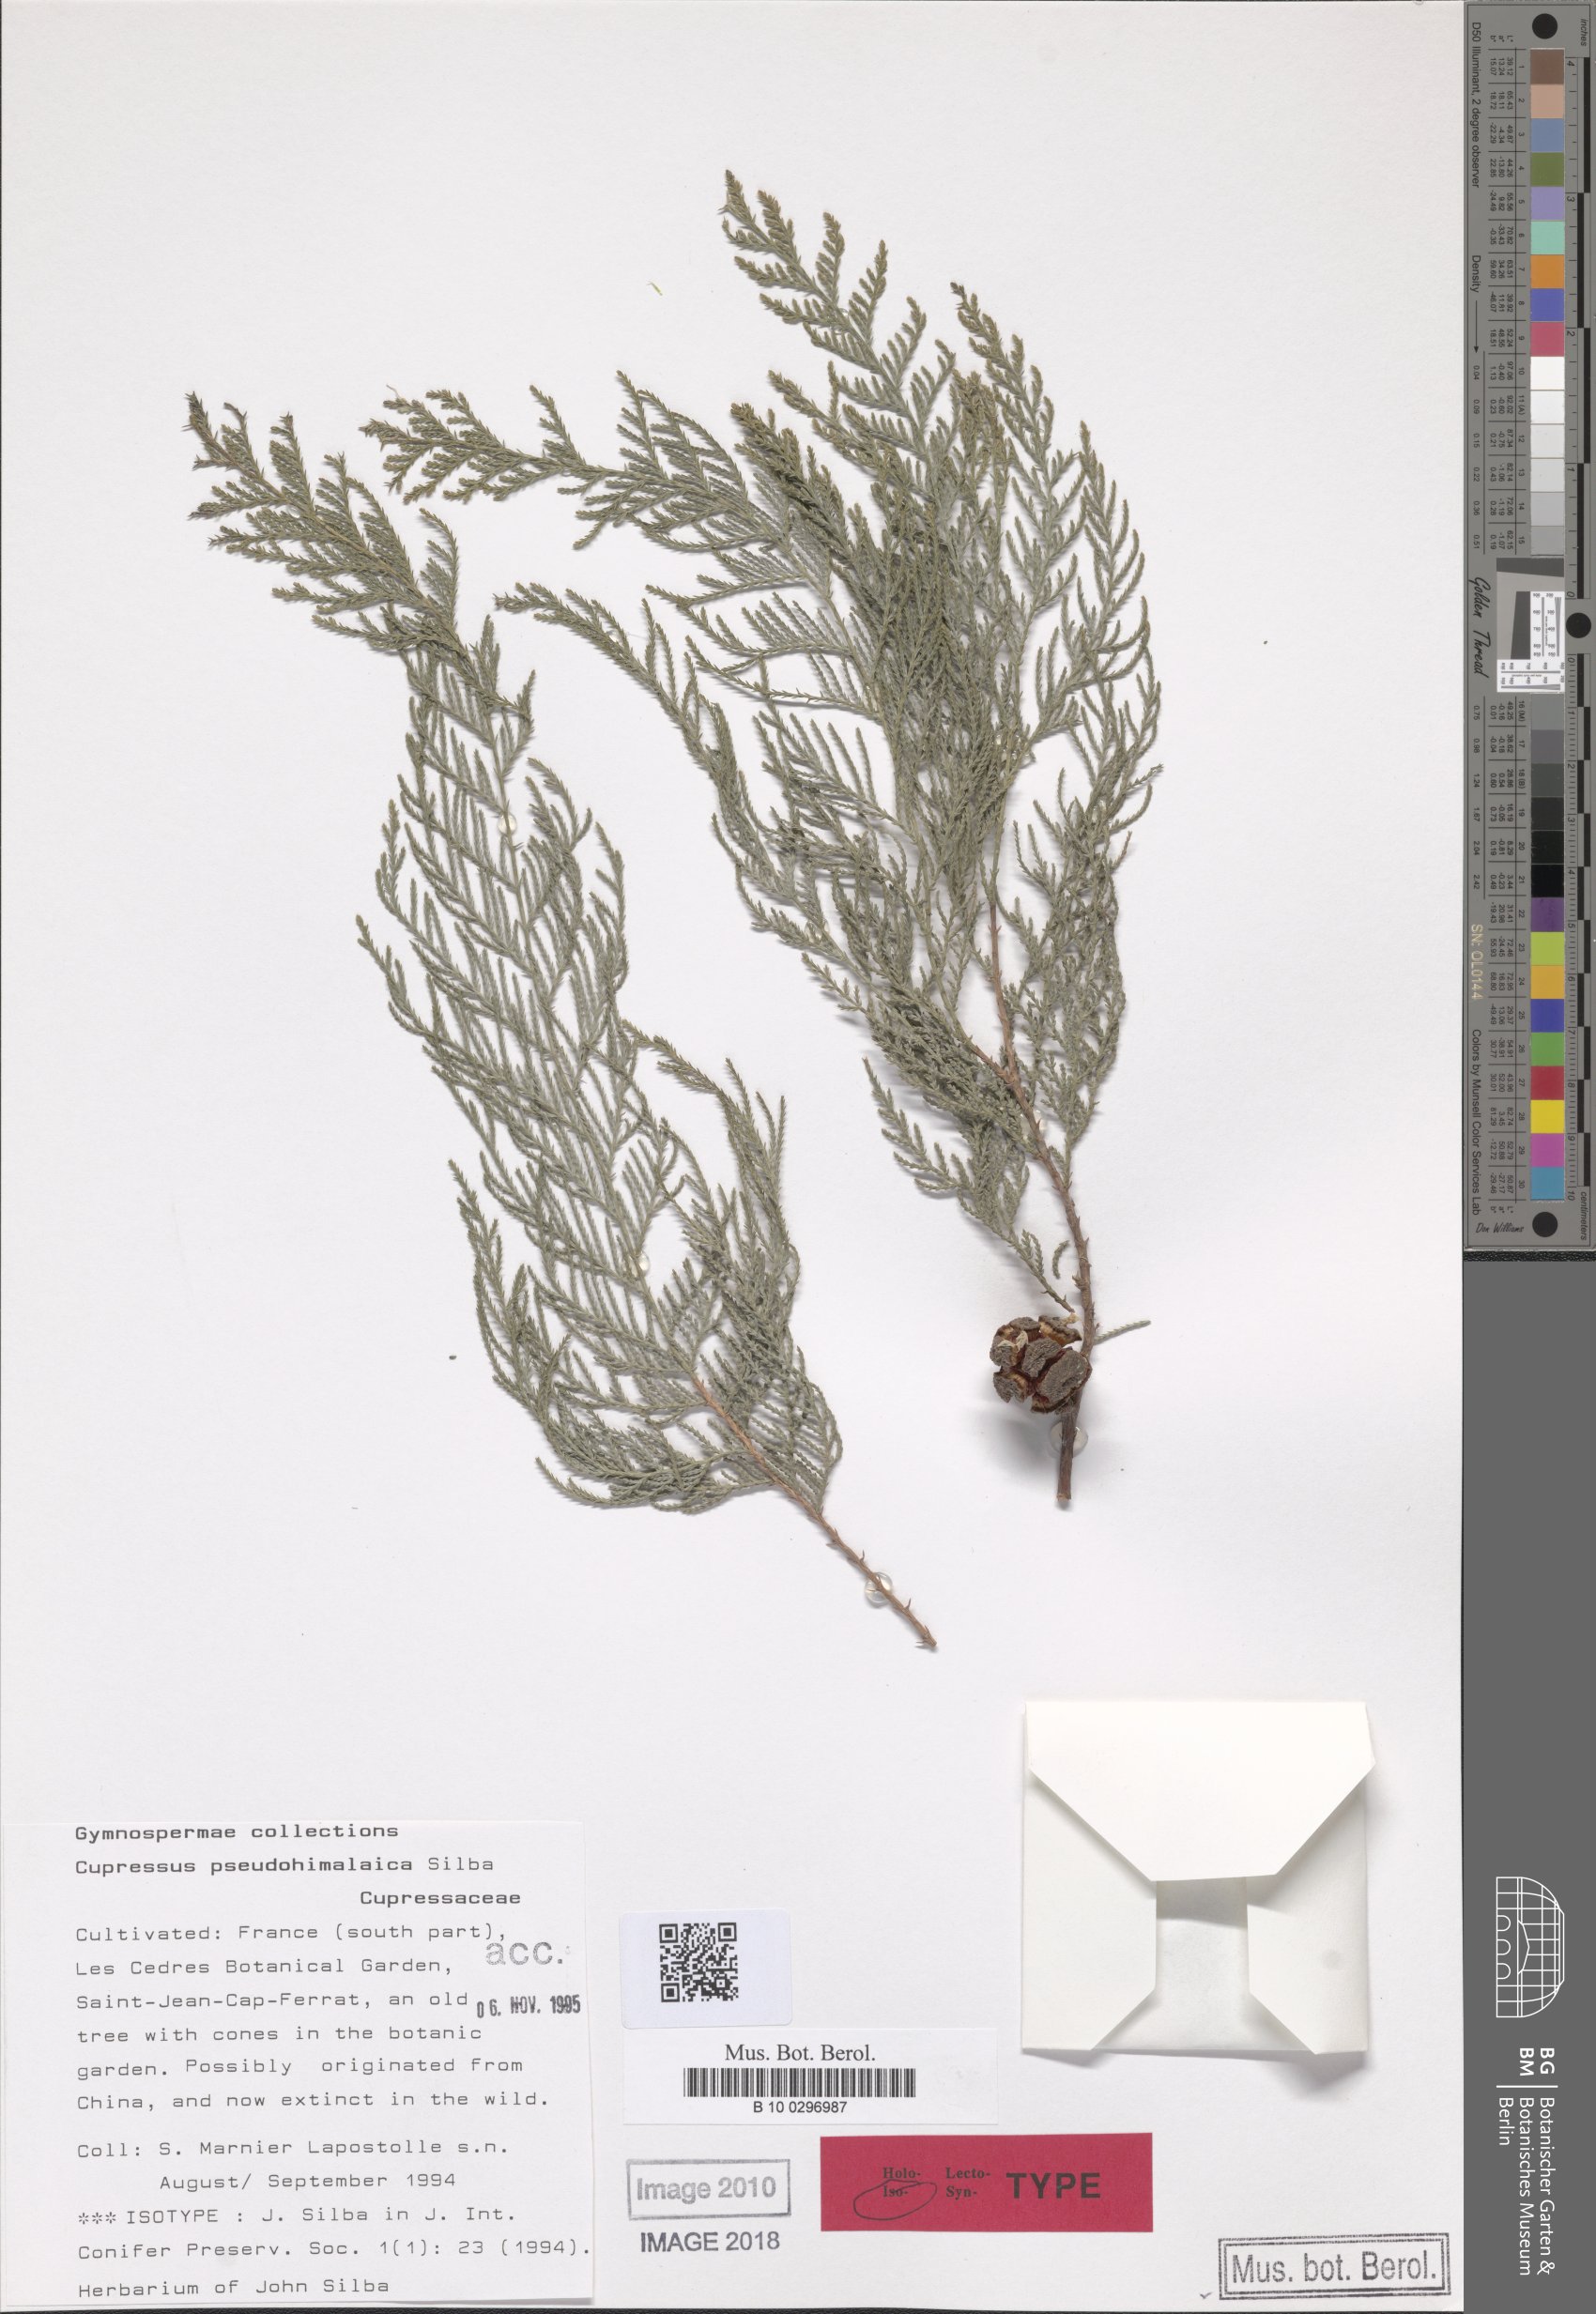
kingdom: Plantae
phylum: Tracheophyta
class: Pinopsida
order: Pinales
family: Cupressaceae
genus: Cupressus
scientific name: Cupressus cashmeriana
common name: Bhutan cypress
